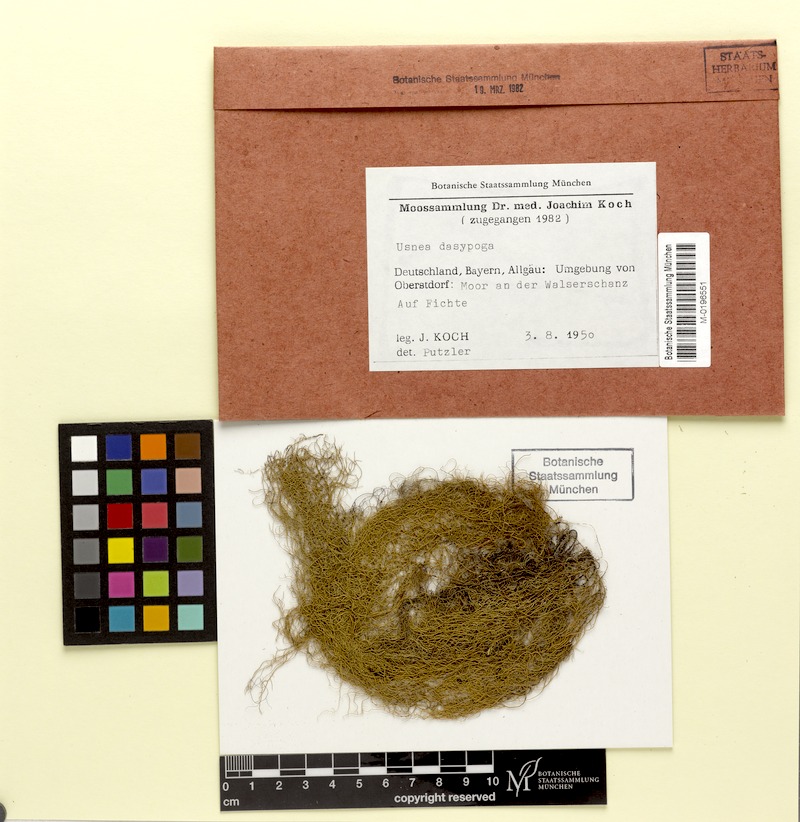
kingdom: Fungi
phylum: Ascomycota
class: Lecanoromycetes
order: Lecanorales
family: Parmeliaceae
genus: Usnea
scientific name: Usnea dasopoga
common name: Fishbone beard lichen
